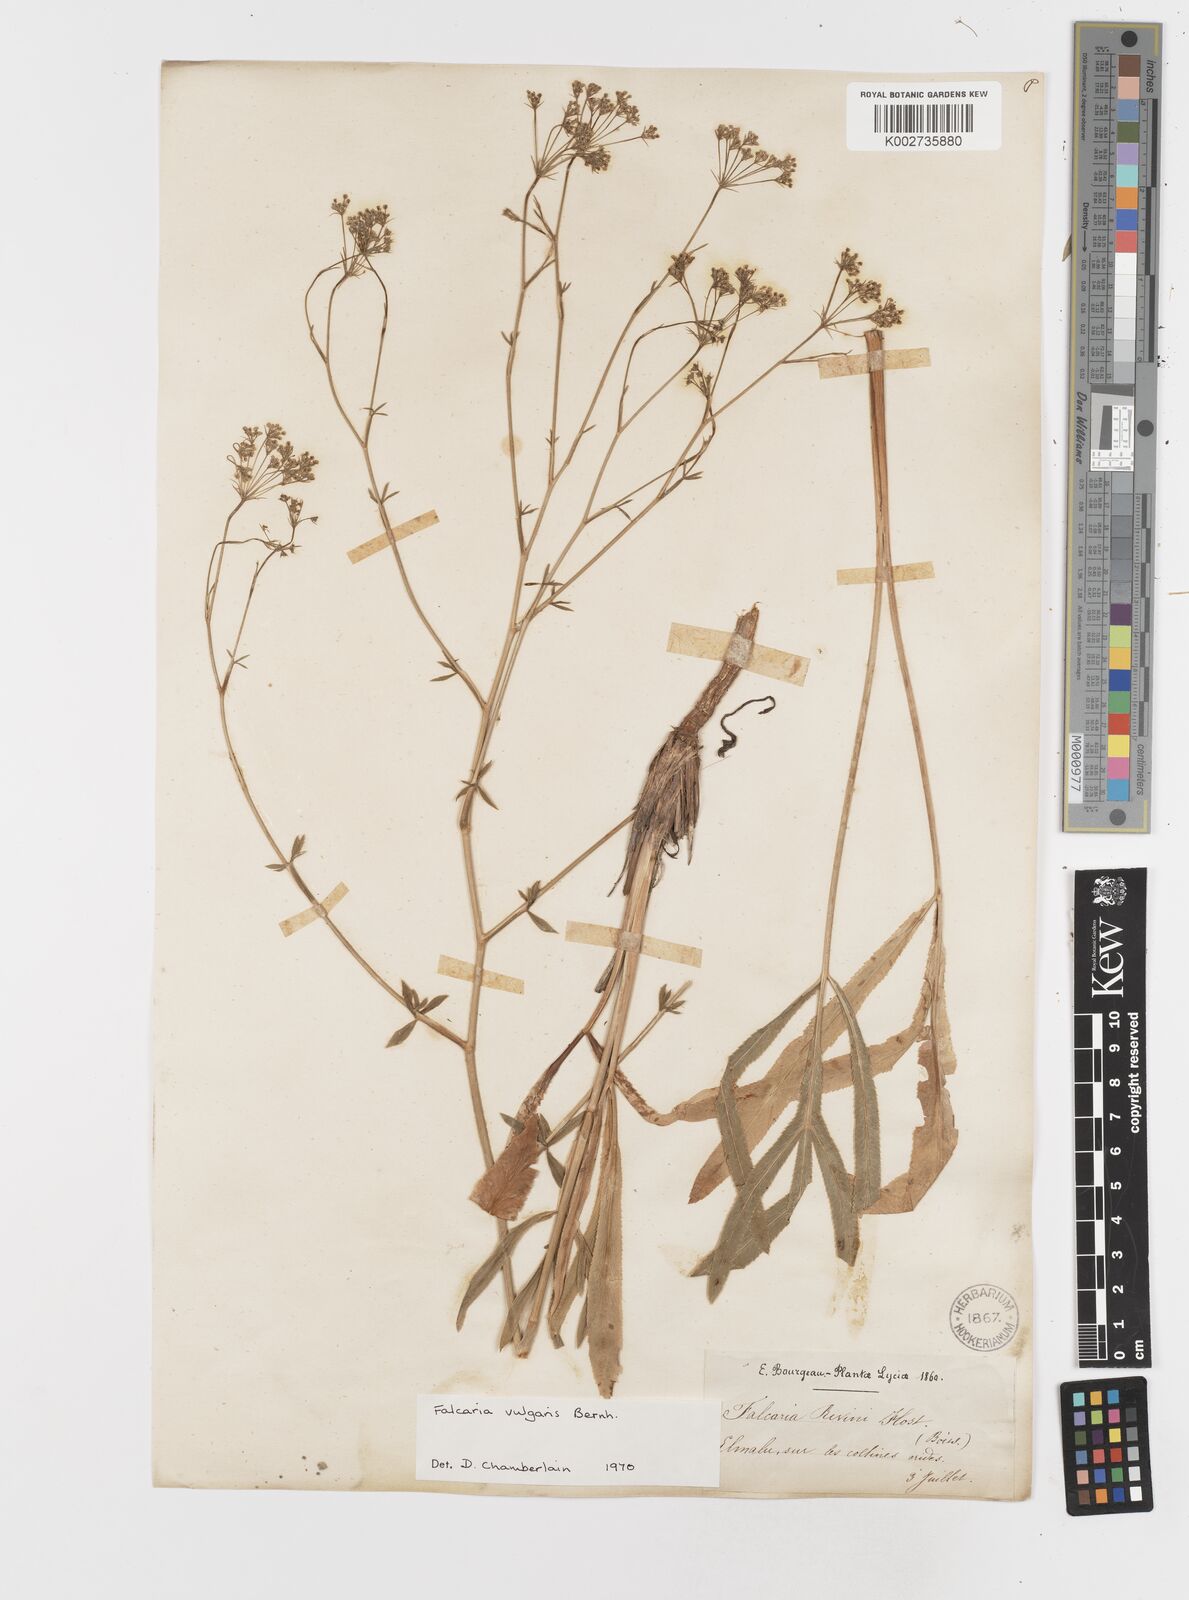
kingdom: Plantae
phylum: Tracheophyta
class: Magnoliopsida
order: Apiales
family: Apiaceae
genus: Falcaria
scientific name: Falcaria vulgaris
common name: Longleaf
